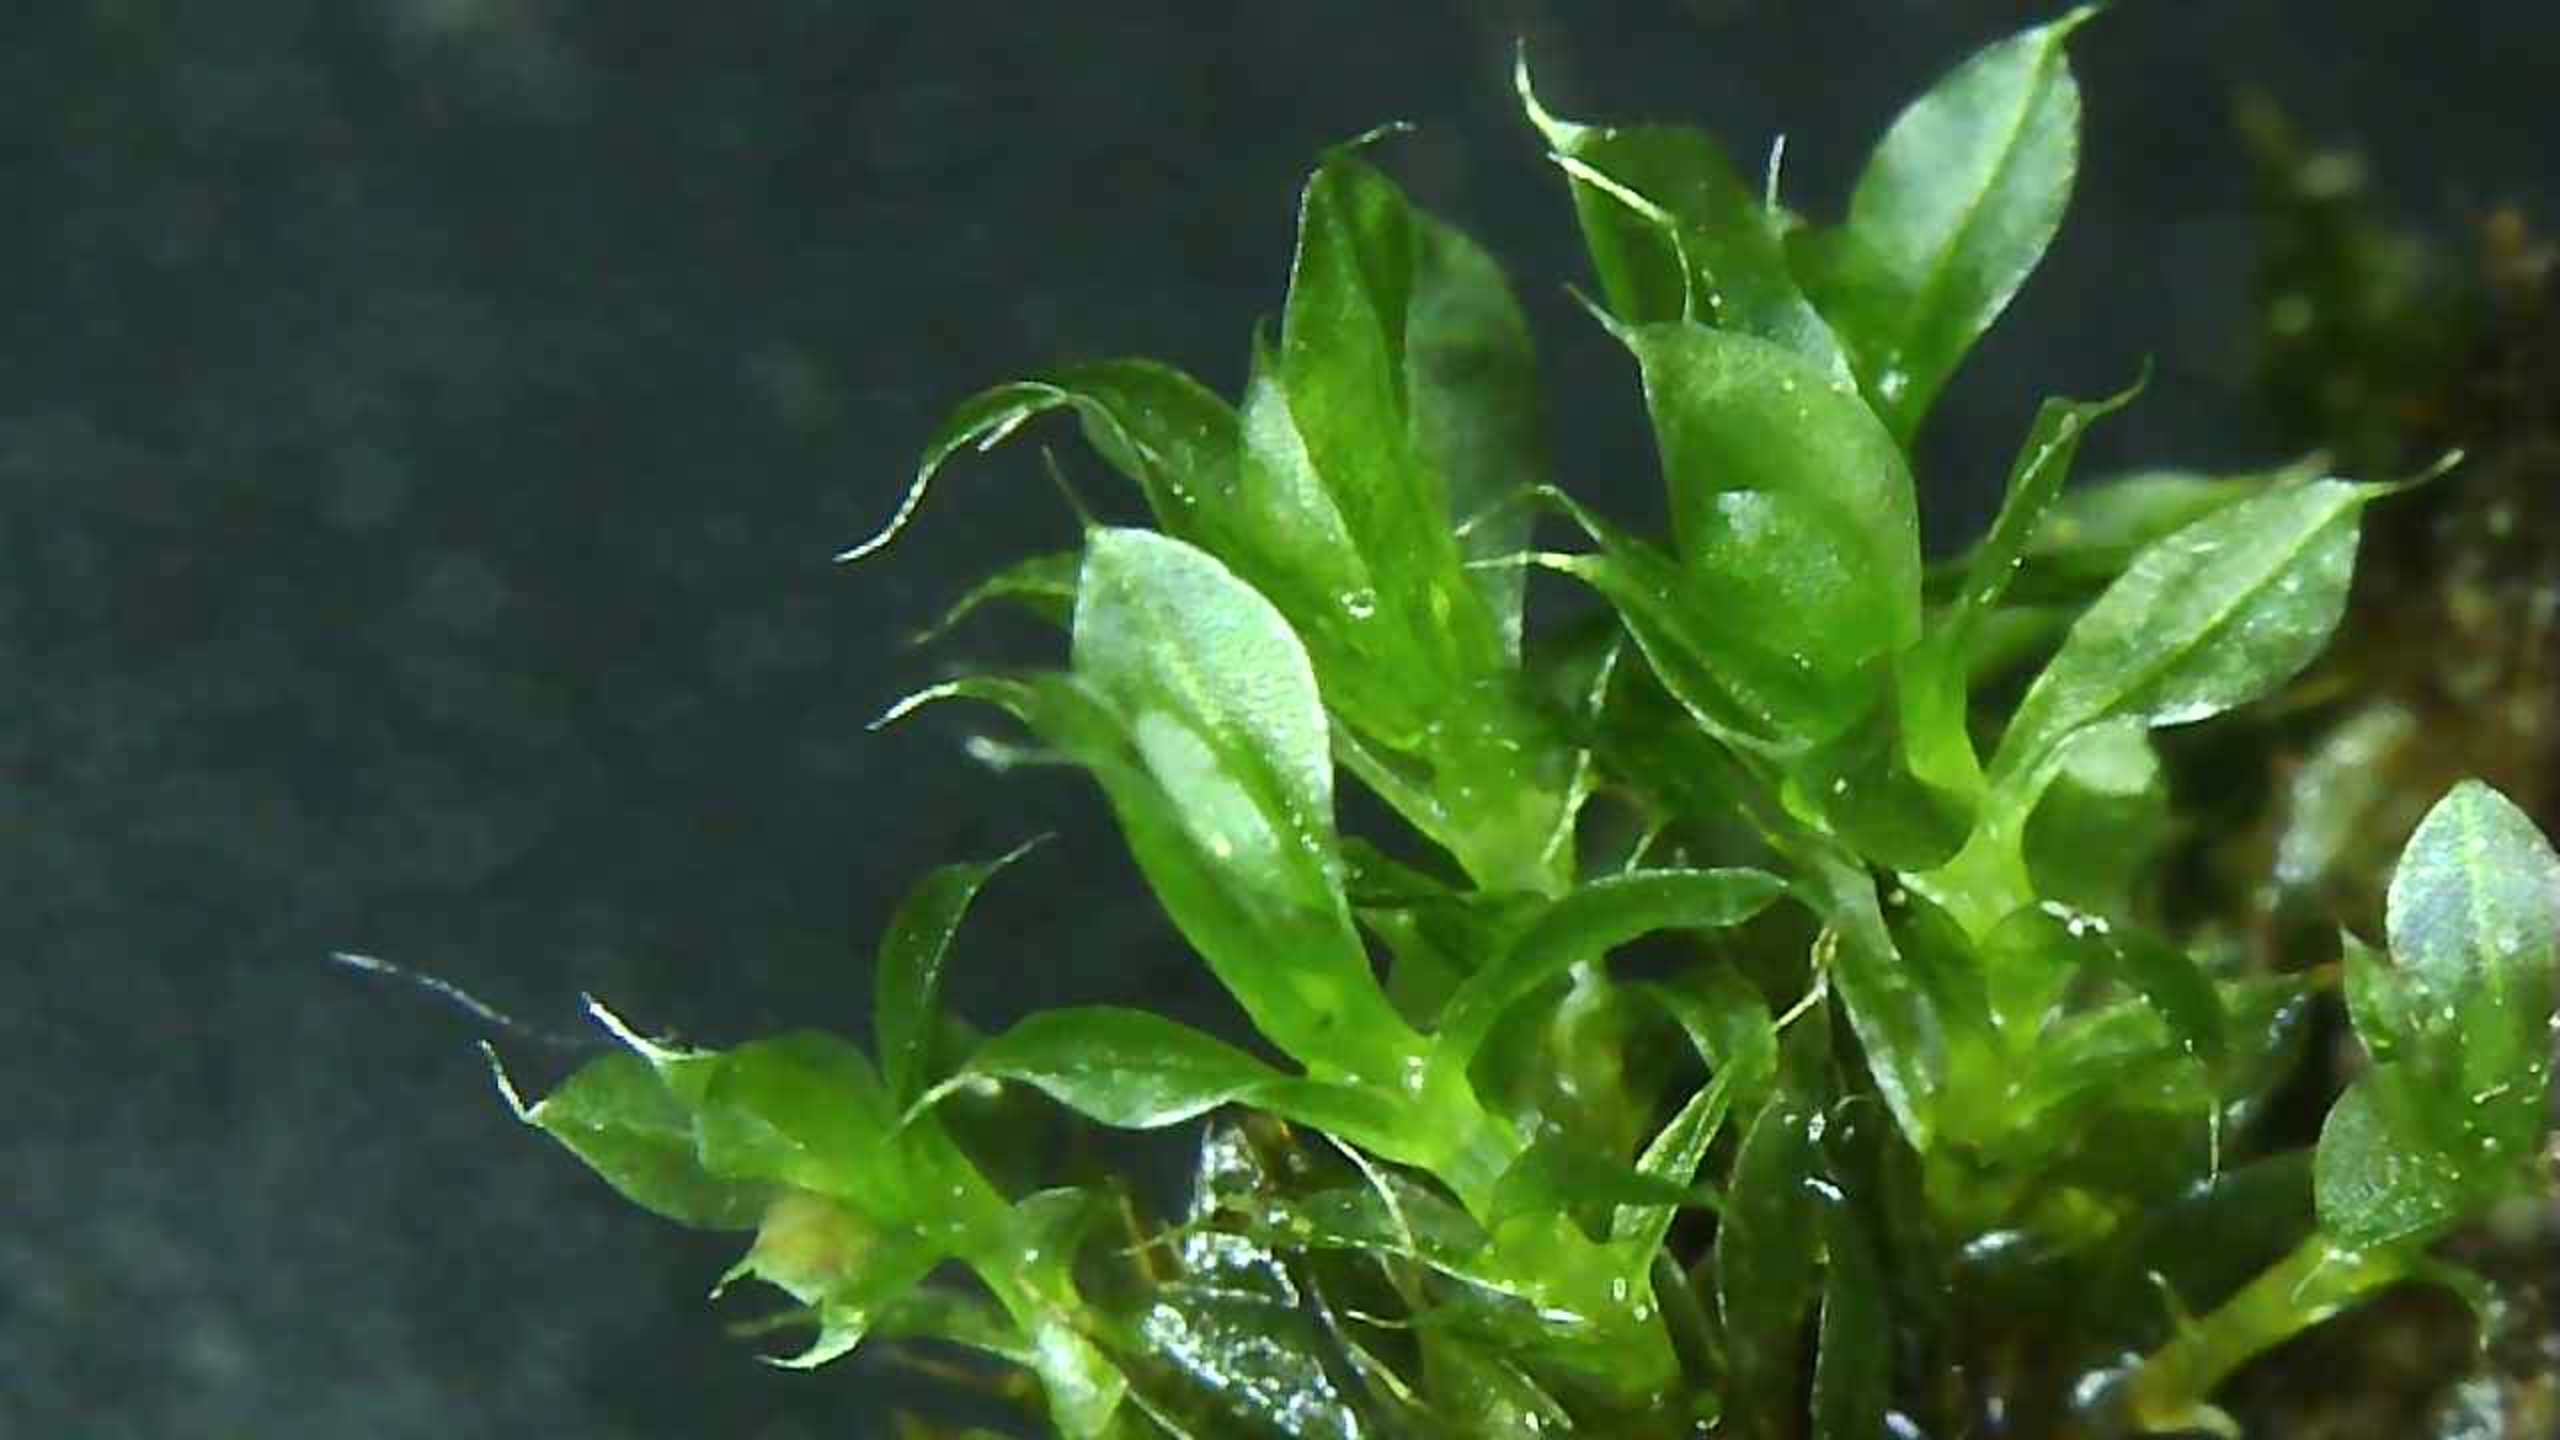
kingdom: Plantae
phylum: Bryophyta
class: Bryopsida
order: Bryales
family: Bryaceae
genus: Rosulabryum
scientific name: Rosulabryum capillare
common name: Hårspidset bryum
